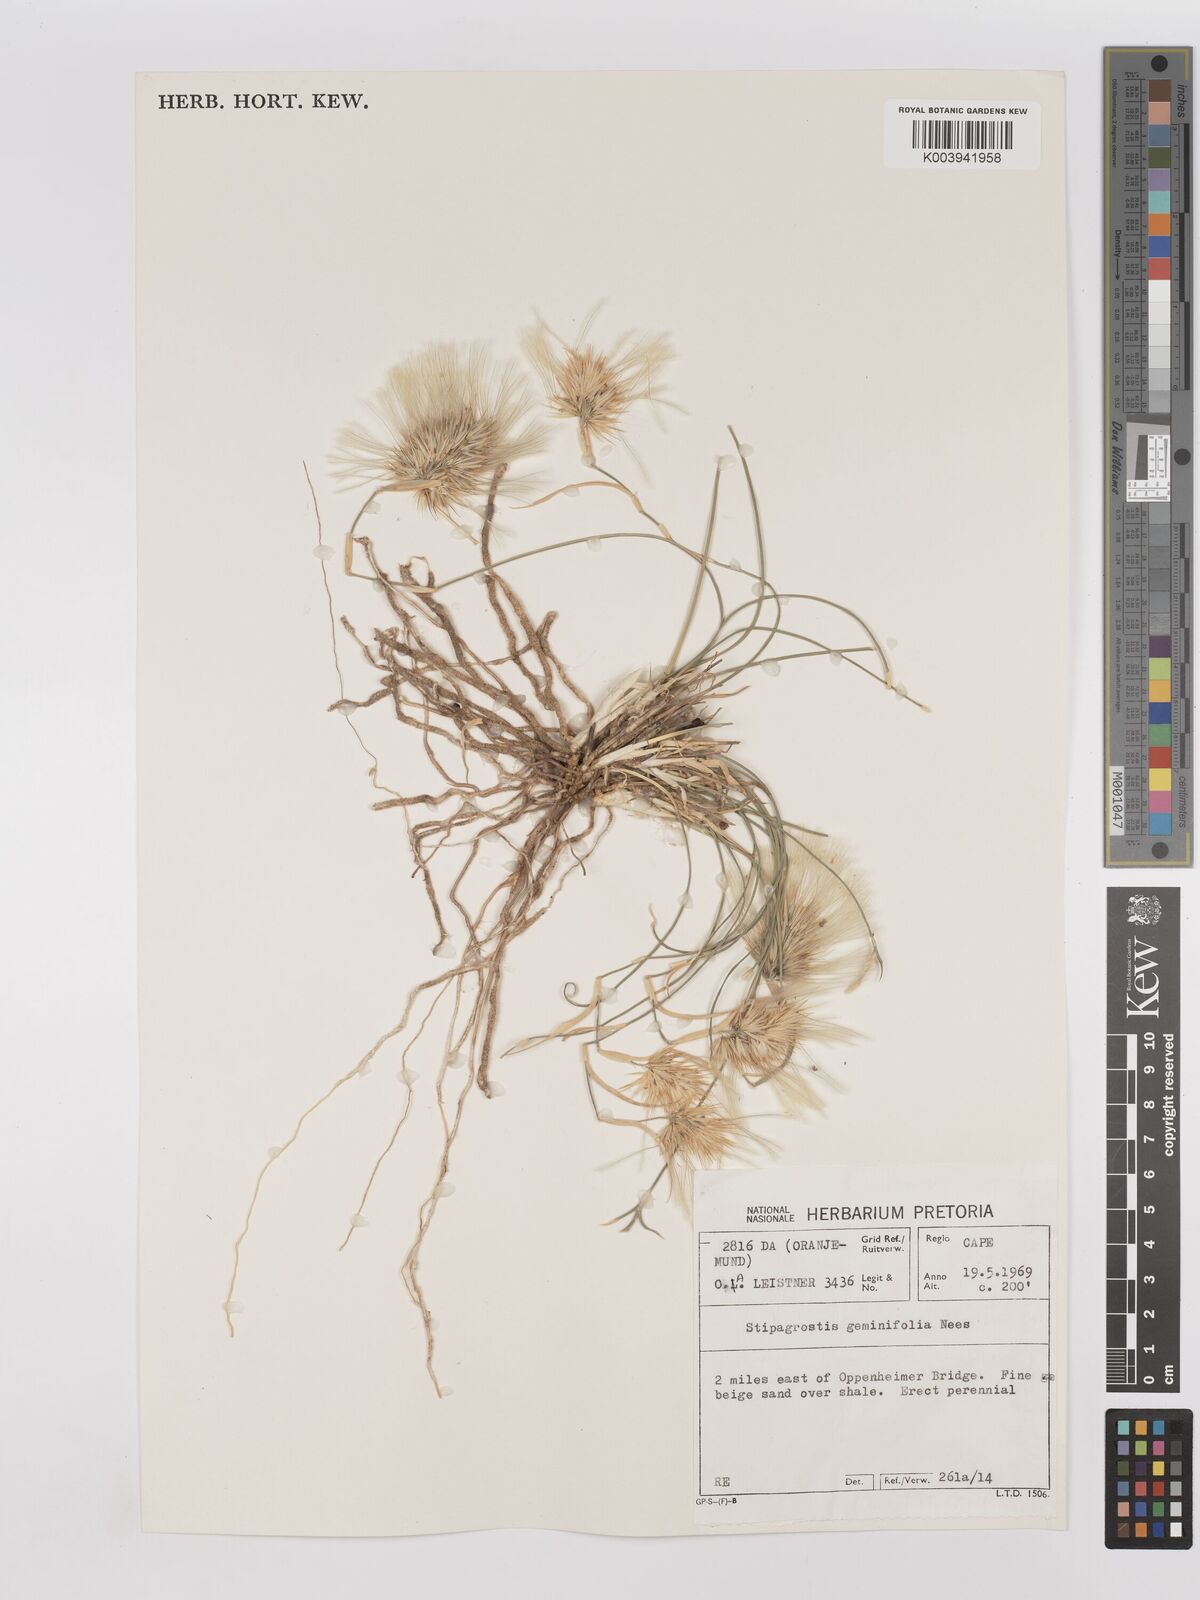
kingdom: Plantae
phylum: Tracheophyta
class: Liliopsida
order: Poales
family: Poaceae
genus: Stipagrostis
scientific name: Stipagrostis geminifolia
